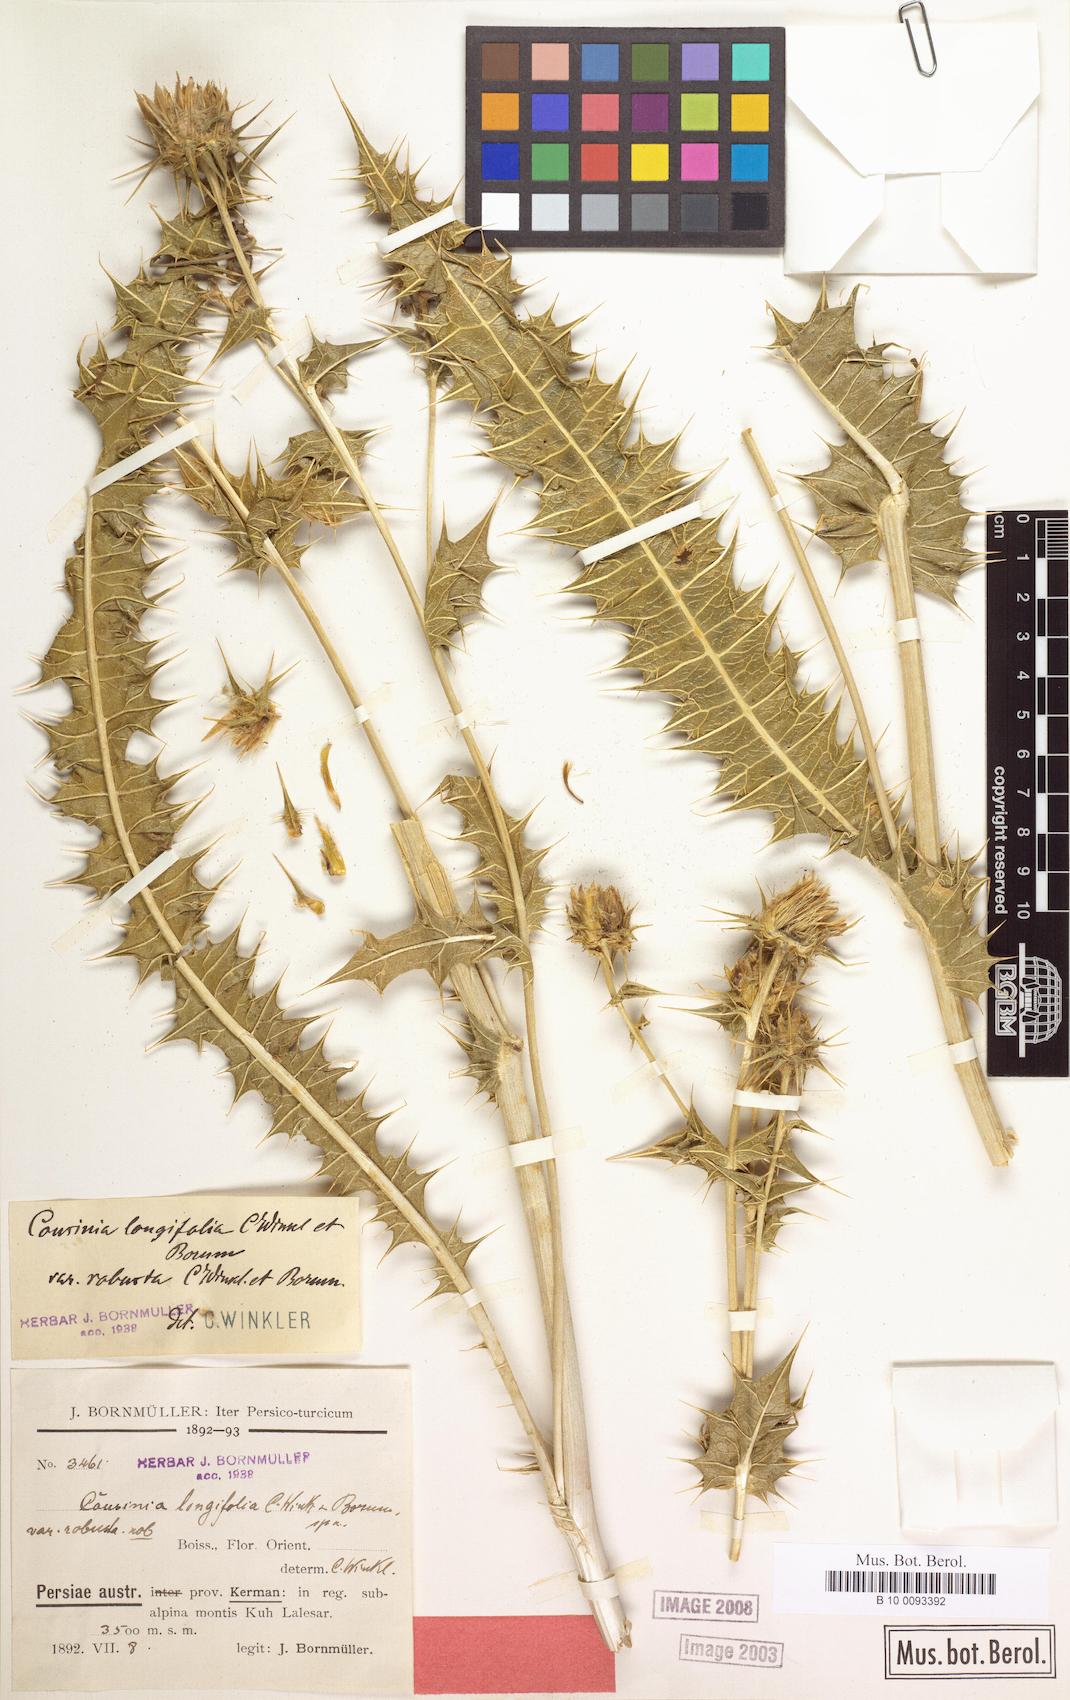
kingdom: Plantae
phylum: Tracheophyta
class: Magnoliopsida
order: Asterales
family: Asteraceae
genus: Cousinia
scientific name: Cousinia longifolia
